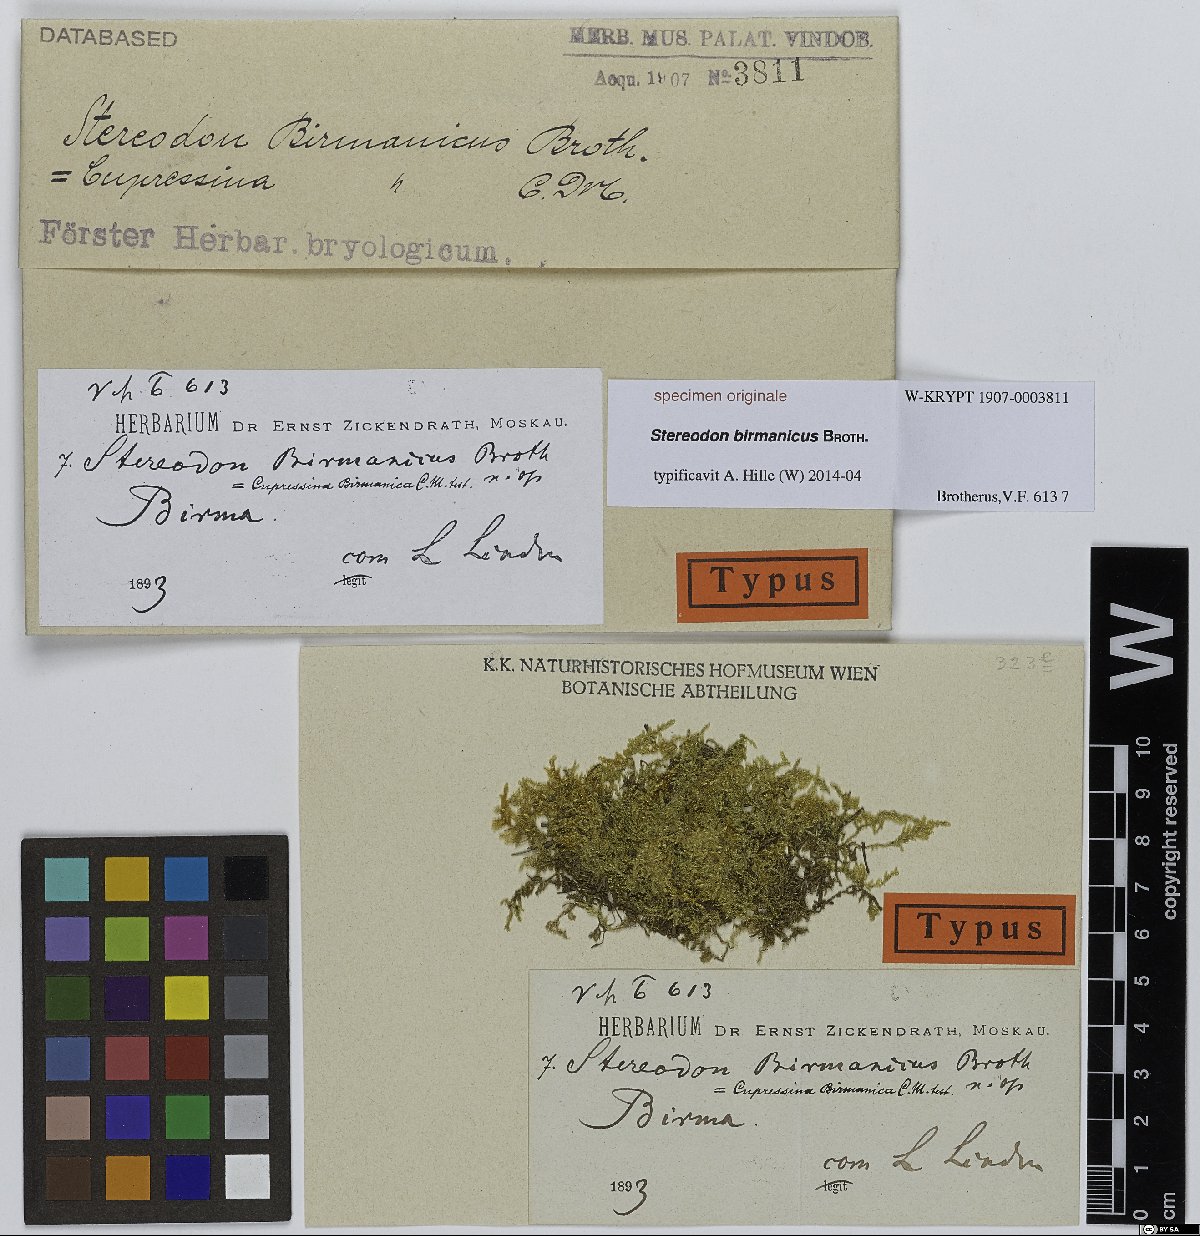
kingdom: Plantae
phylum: Bryophyta
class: Bryopsida
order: Hypnales
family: Stereodontaceae
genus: Stereodon
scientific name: Stereodon
